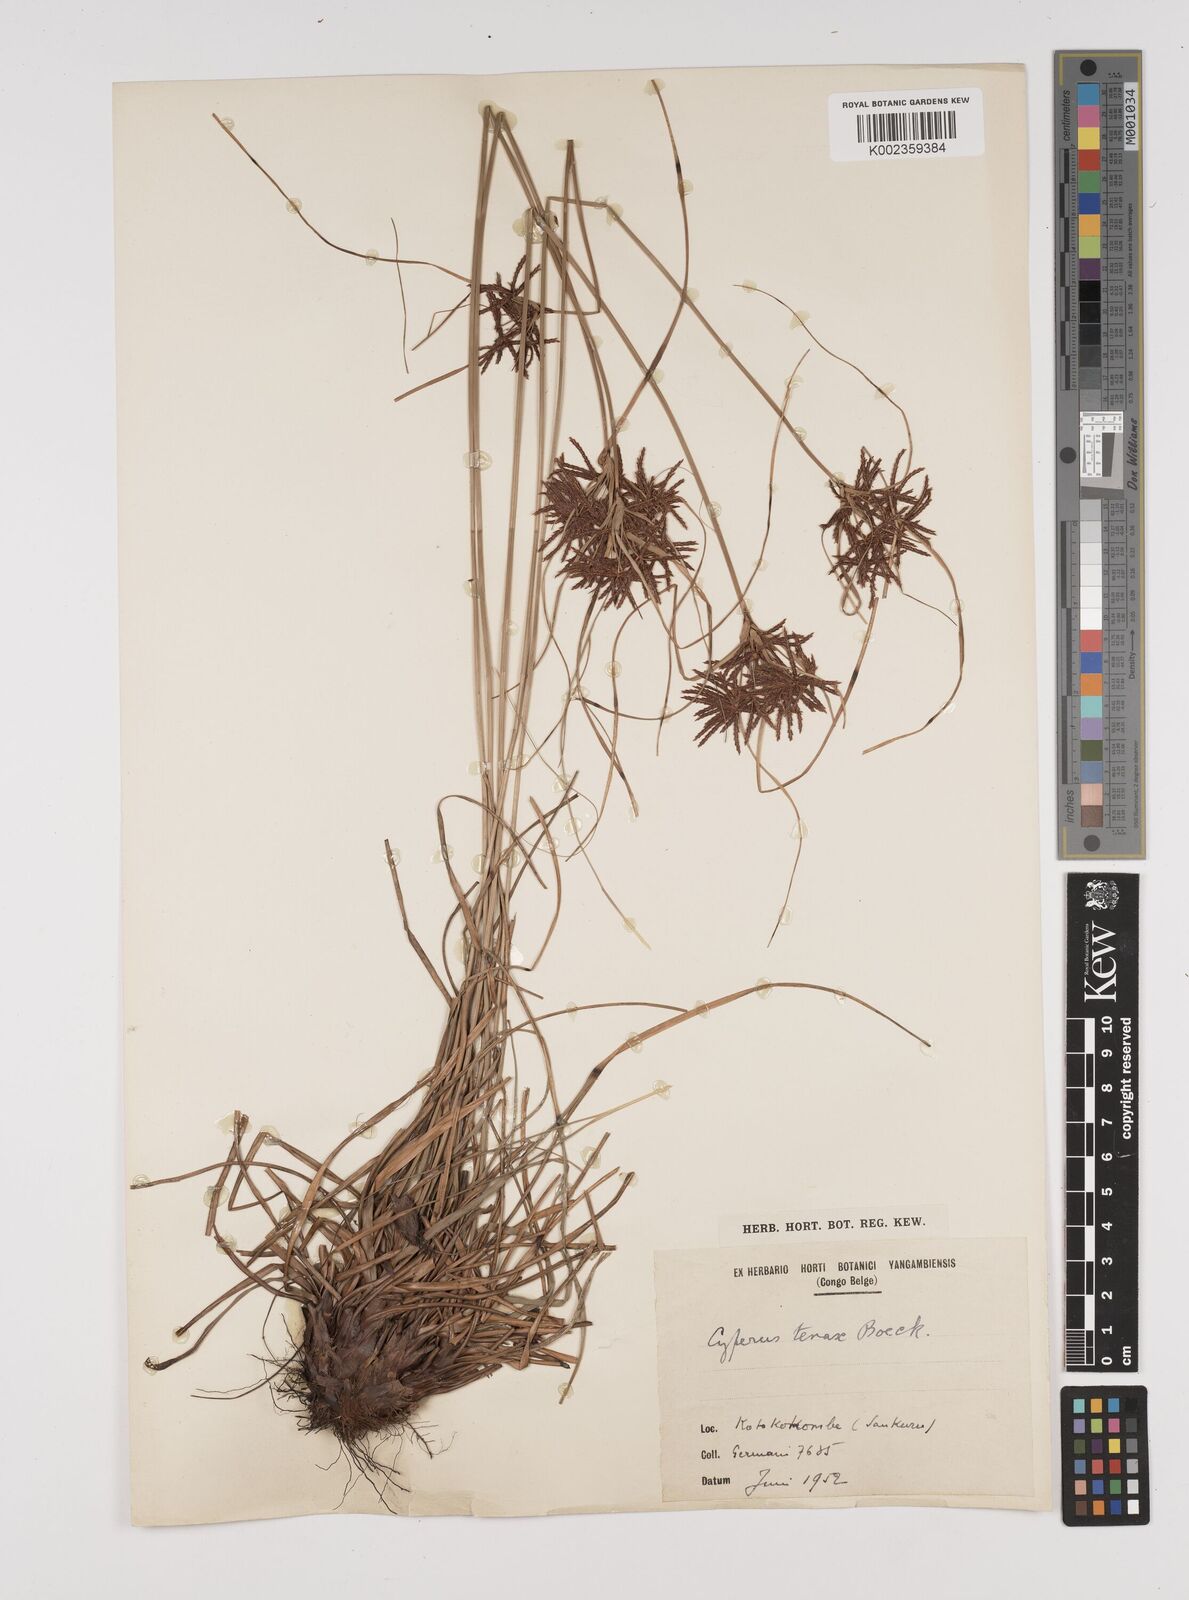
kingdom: Plantae
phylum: Tracheophyta
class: Liliopsida
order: Poales
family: Cyperaceae
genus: Cyperus
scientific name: Cyperus tenax
